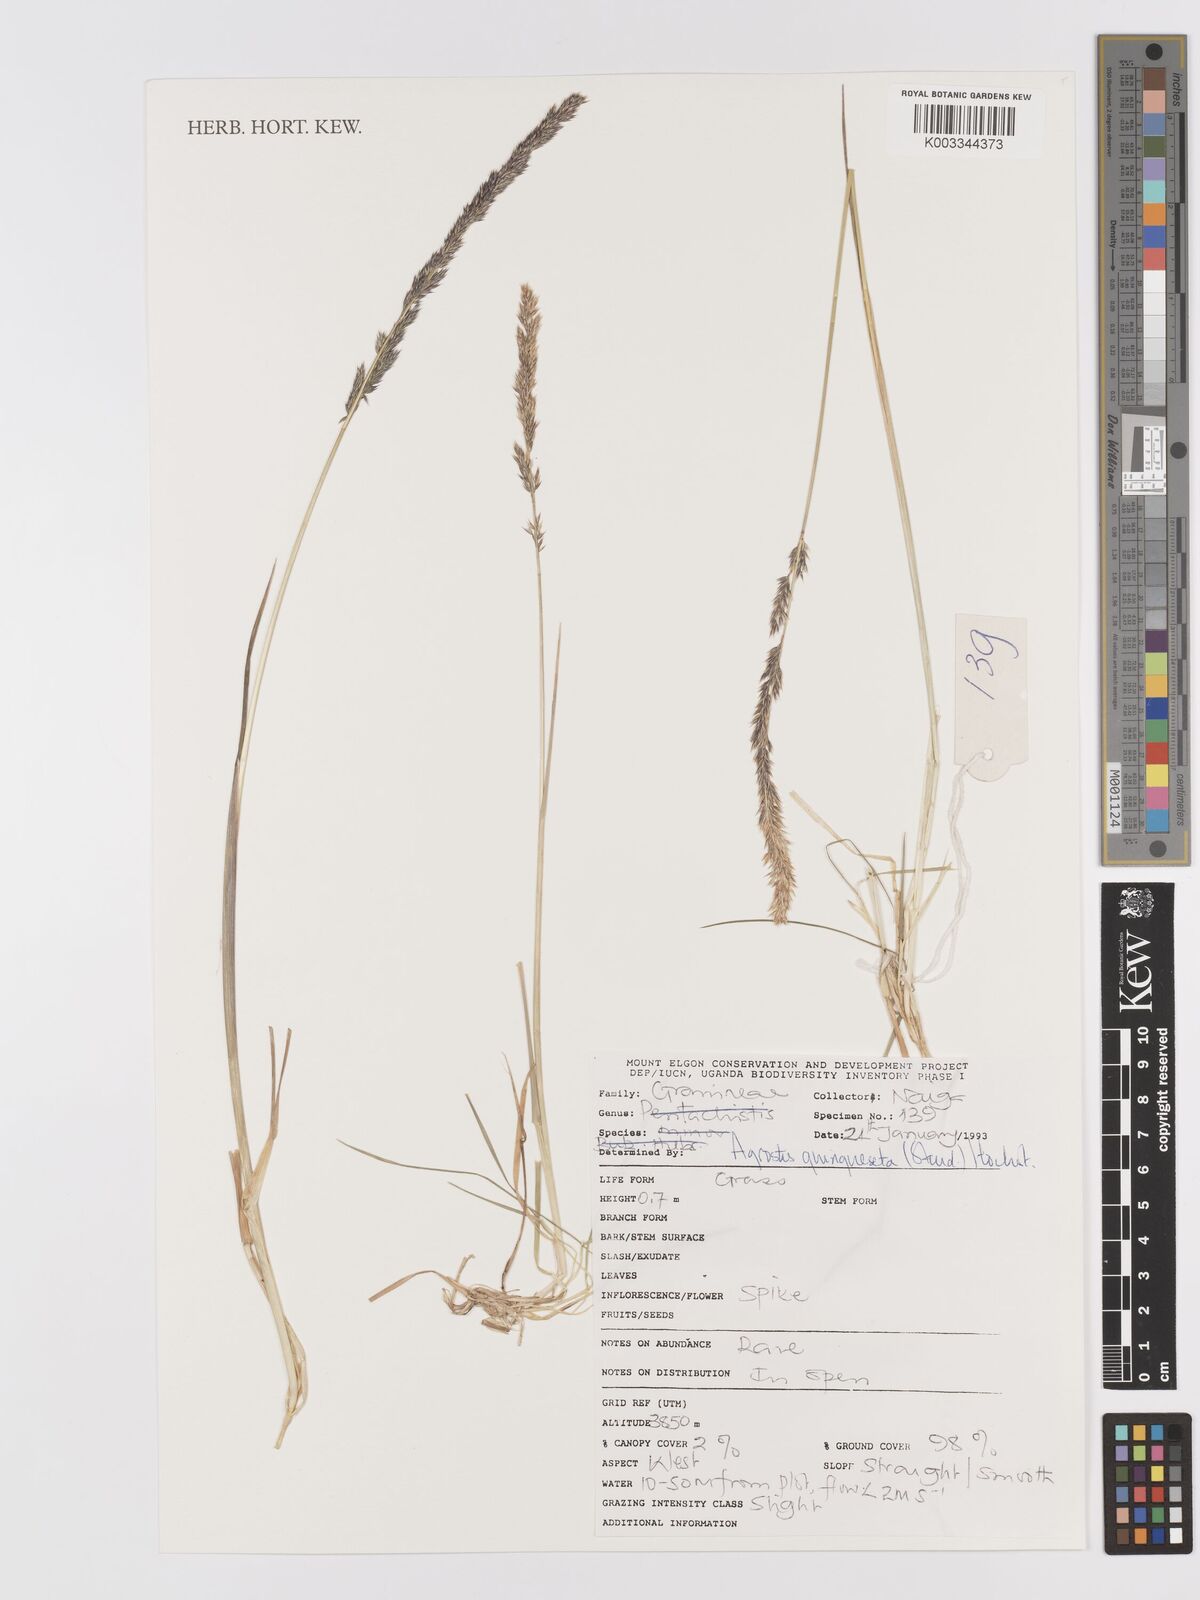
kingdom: Plantae
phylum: Tracheophyta
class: Liliopsida
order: Poales
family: Poaceae
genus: Agrostis
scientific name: Agrostis quinqueseta
